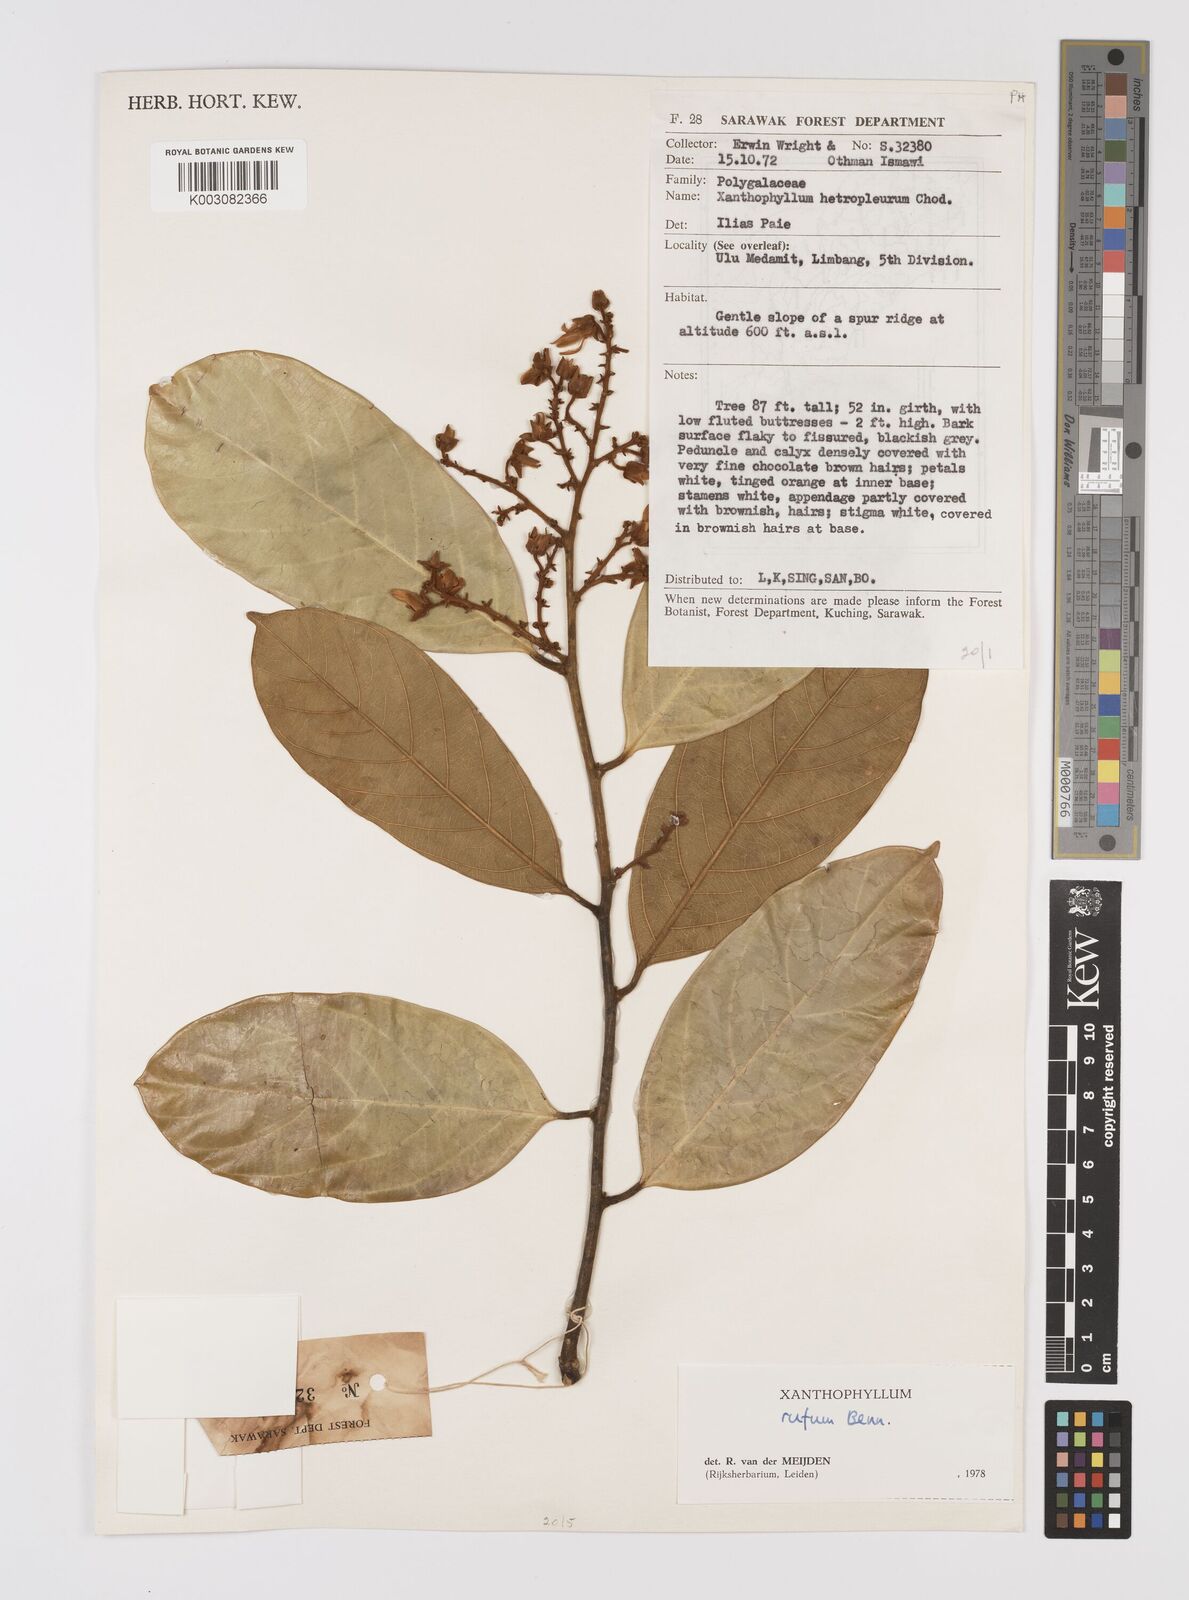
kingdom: Plantae
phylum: Tracheophyta
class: Magnoliopsida
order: Fabales
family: Polygalaceae
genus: Xanthophyllum
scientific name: Xanthophyllum rufum
